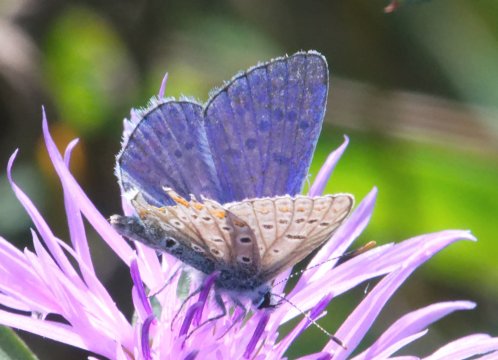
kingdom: Animalia
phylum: Arthropoda
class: Insecta
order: Lepidoptera
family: Lycaenidae
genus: Polyommatus
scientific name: Polyommatus icarus
